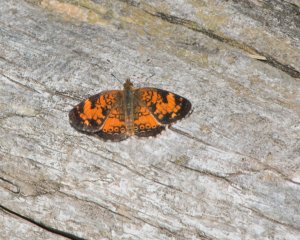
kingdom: Animalia
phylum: Arthropoda
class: Insecta
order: Lepidoptera
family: Nymphalidae
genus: Phyciodes
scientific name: Phyciodes tharos
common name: Northern Crescent
